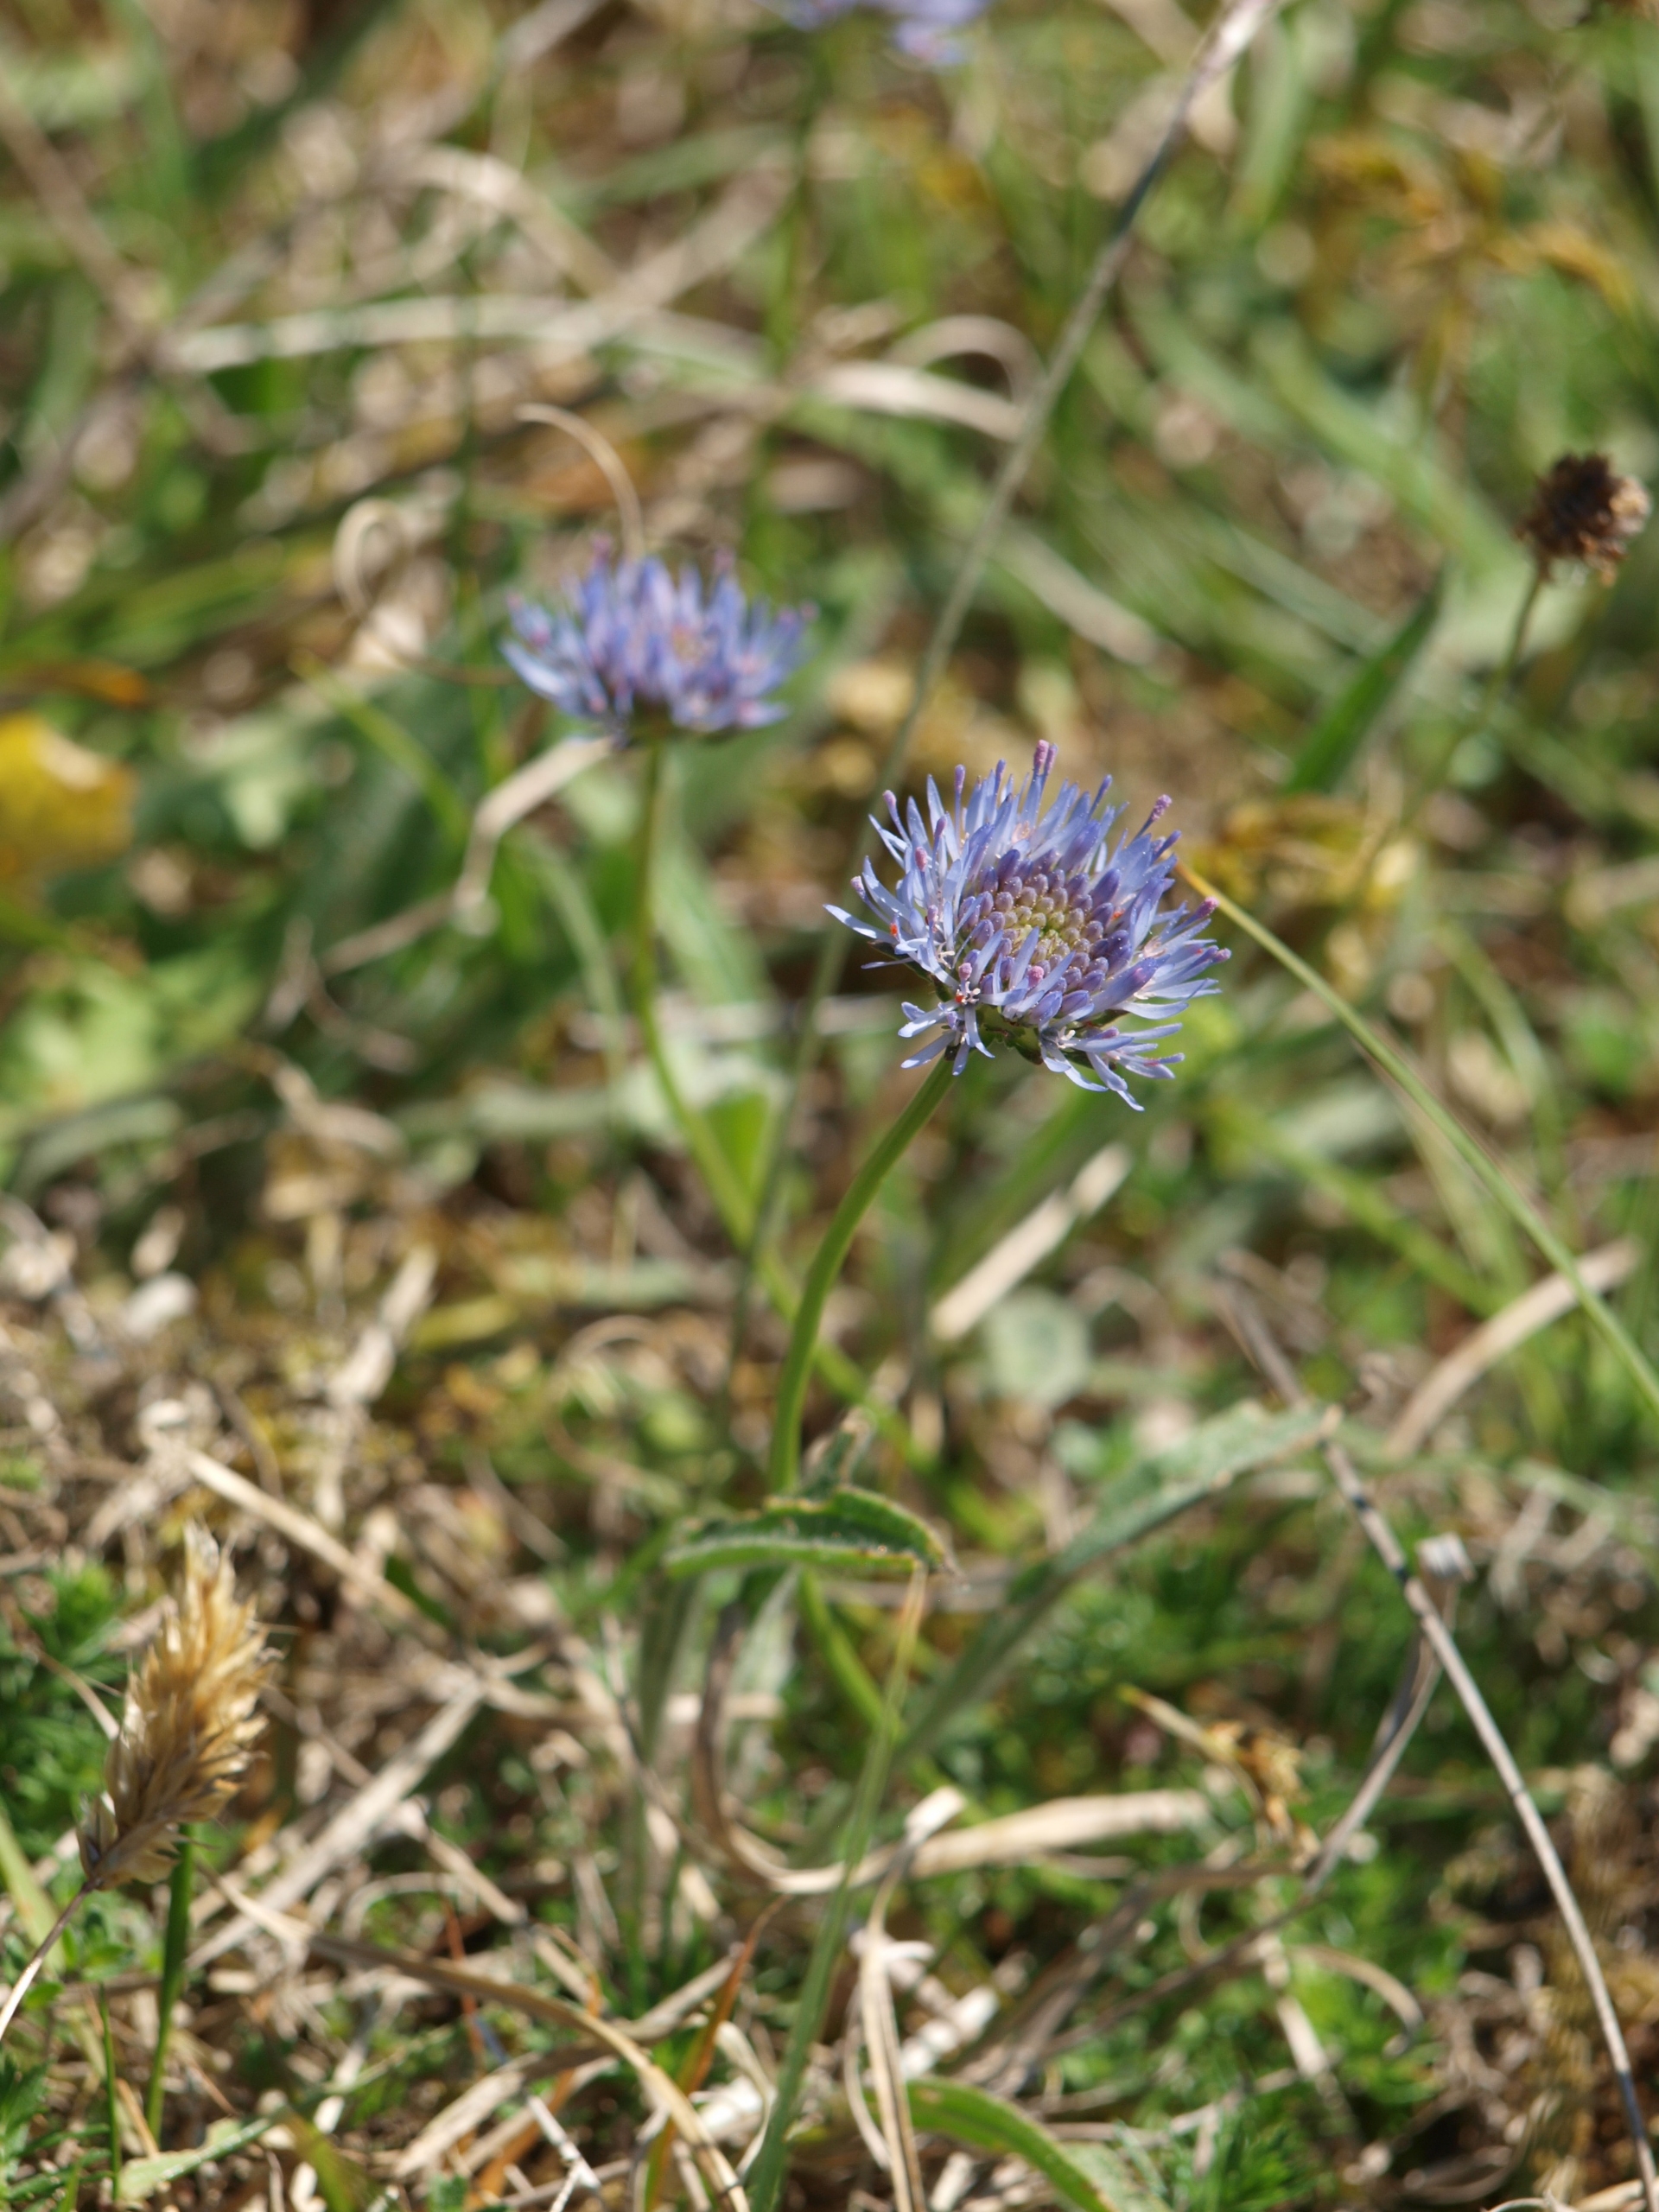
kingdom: Plantae
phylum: Tracheophyta
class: Magnoliopsida
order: Asterales
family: Campanulaceae
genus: Jasione
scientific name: Jasione montana
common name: Blåmunke
